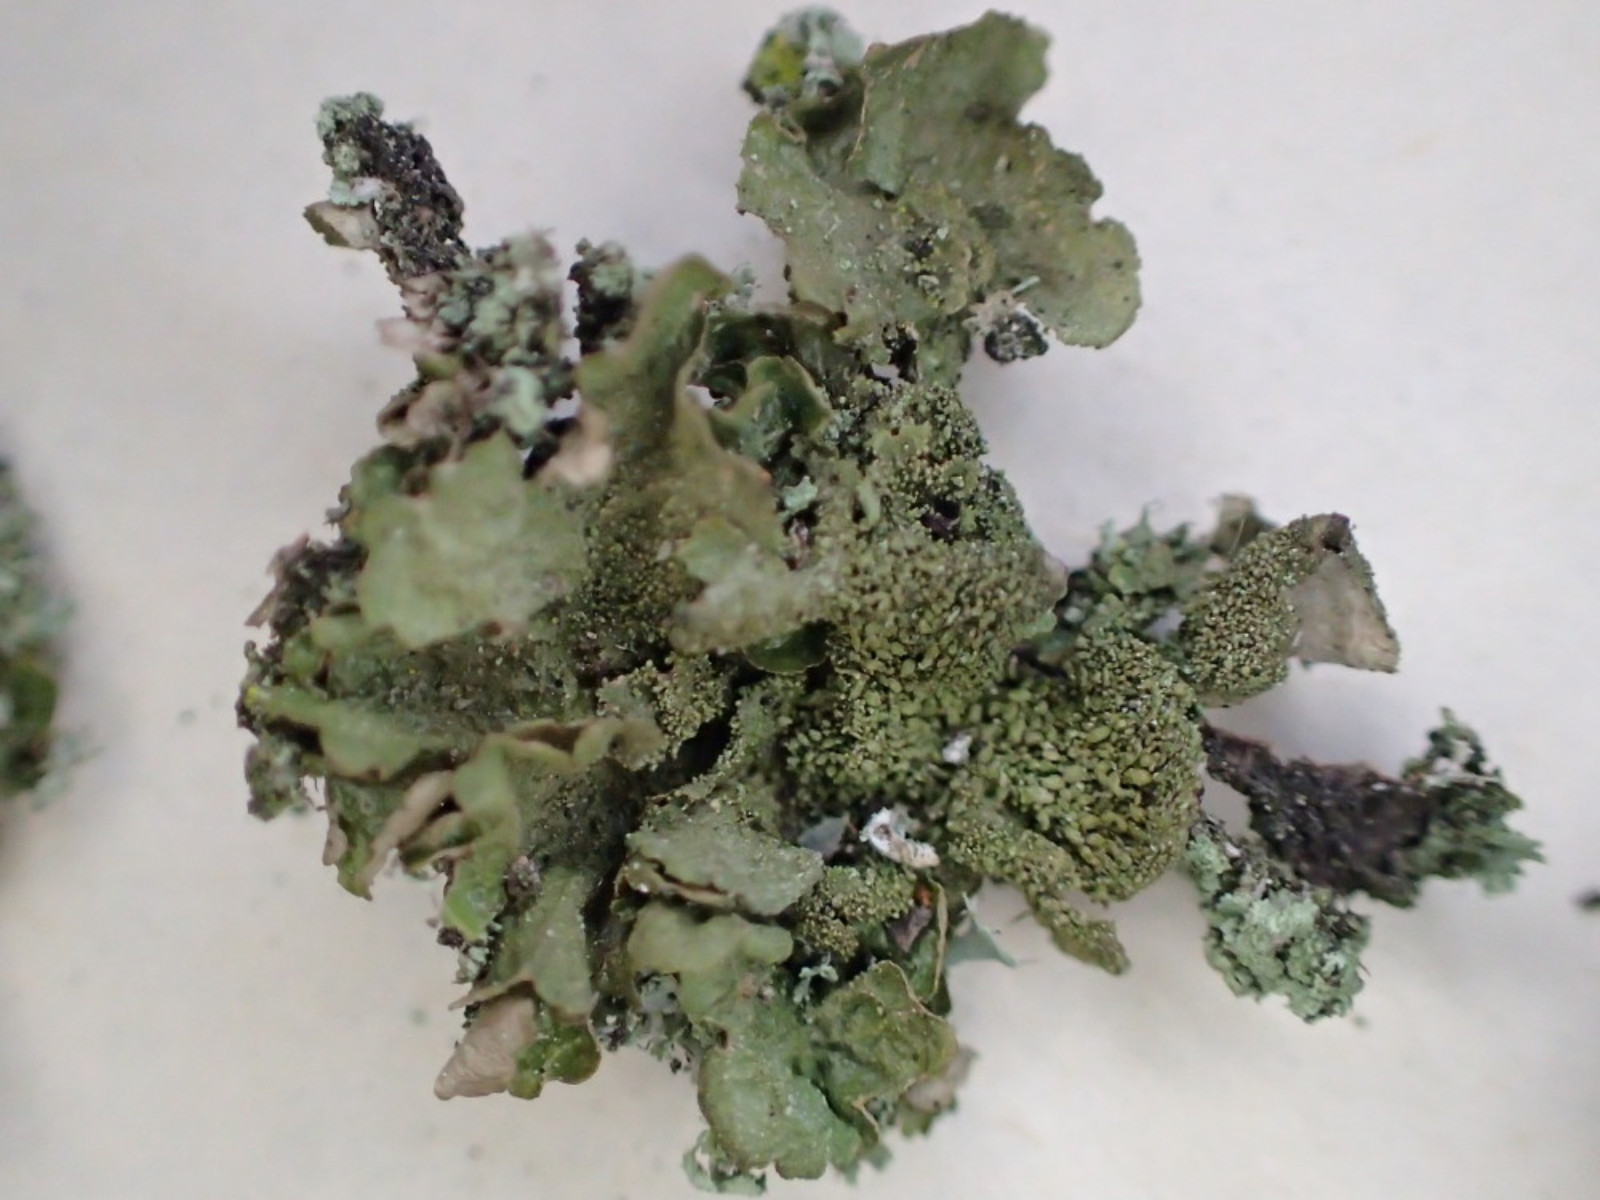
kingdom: Fungi
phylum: Ascomycota
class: Lecanoromycetes
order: Lecanorales
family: Parmeliaceae
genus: Melanohalea
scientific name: Melanohalea exasperatula
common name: kølle-skållav
